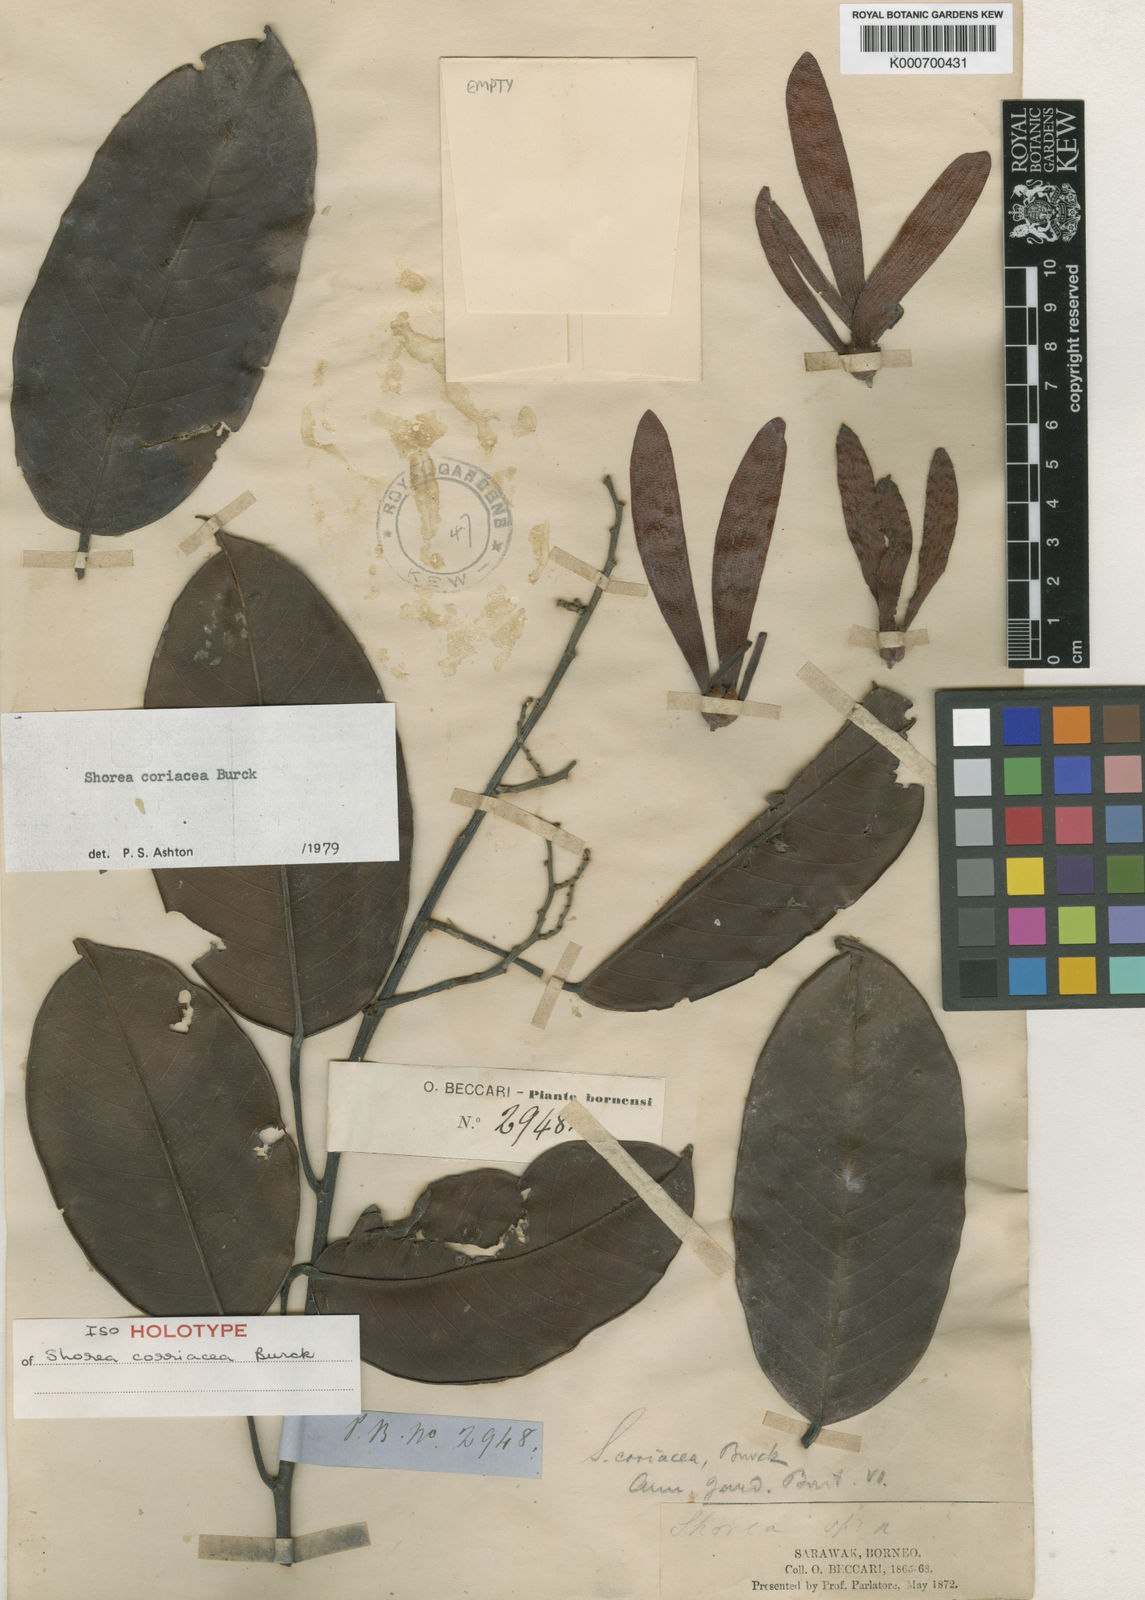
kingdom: Plantae
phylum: Tracheophyta
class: Magnoliopsida
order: Malvales
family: Dipterocarpaceae
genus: Shorea
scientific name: Shorea coriacea
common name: Seraya tangkai panjang
